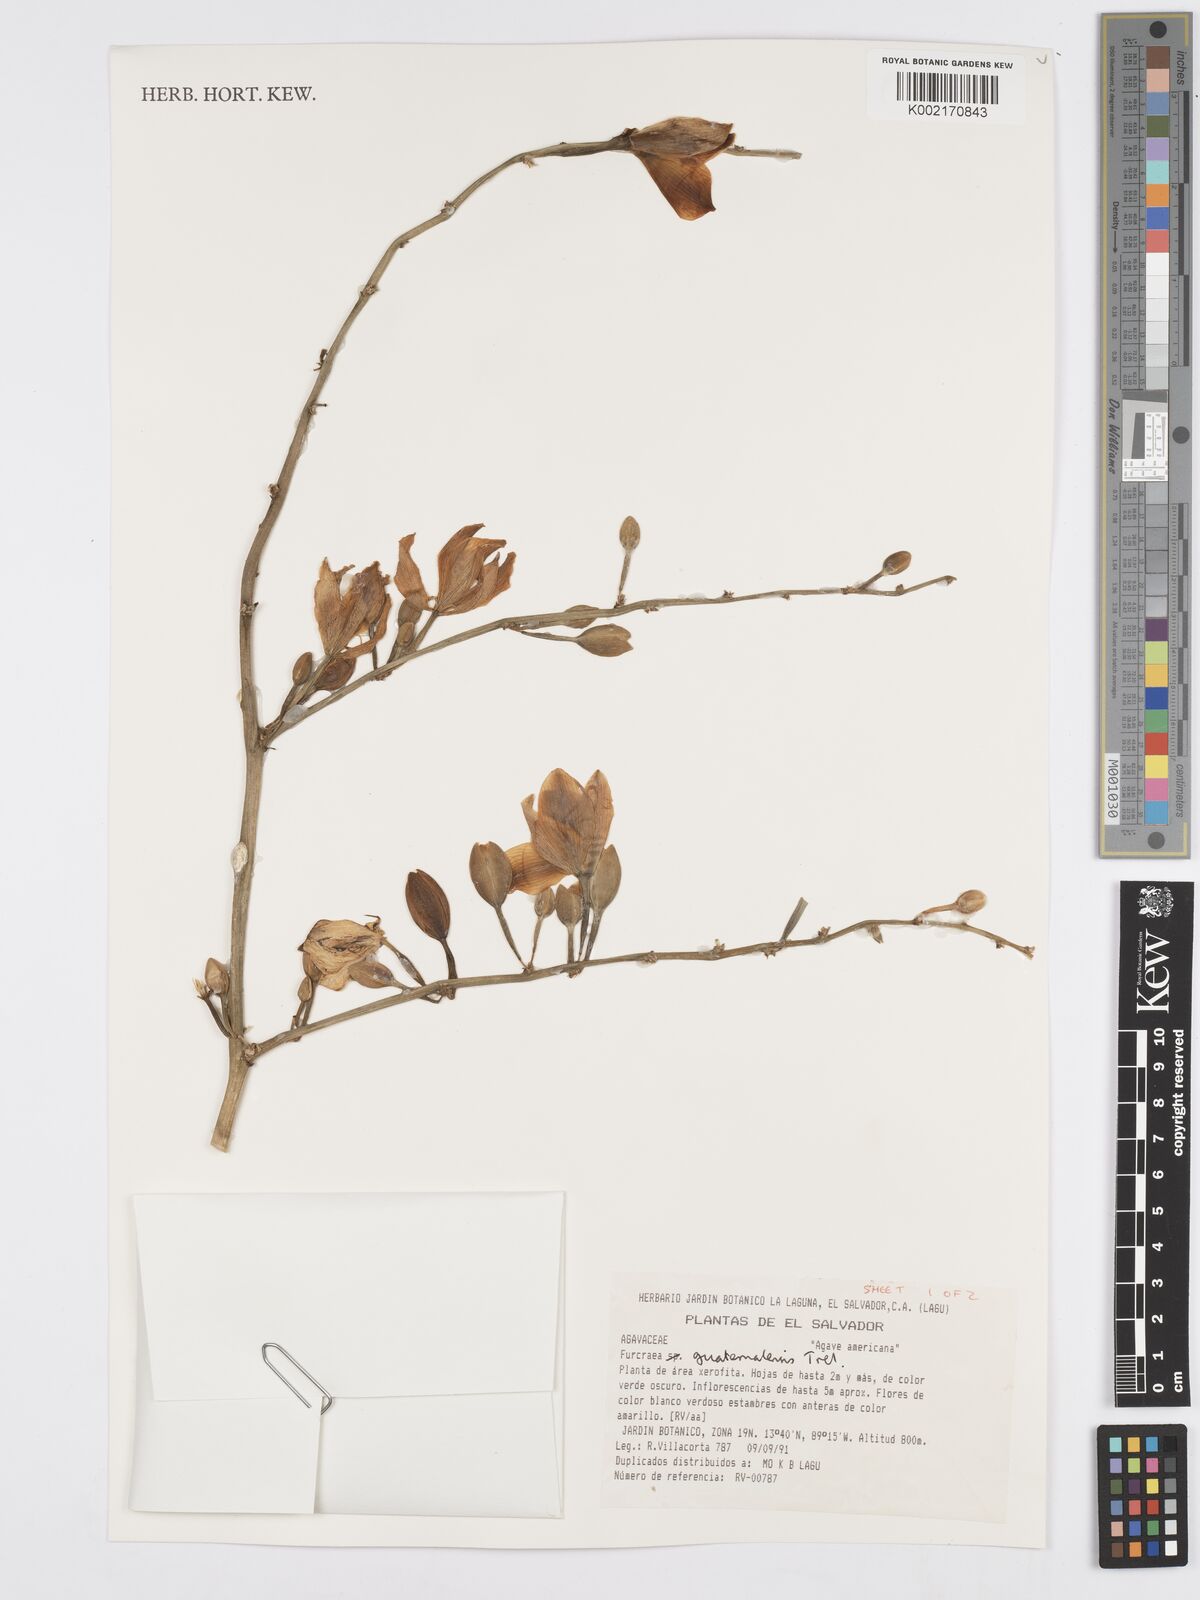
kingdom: Plantae
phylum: Tracheophyta
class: Liliopsida
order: Asparagales
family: Asparagaceae
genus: Furcraea
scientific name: Furcraea guatemalensis
